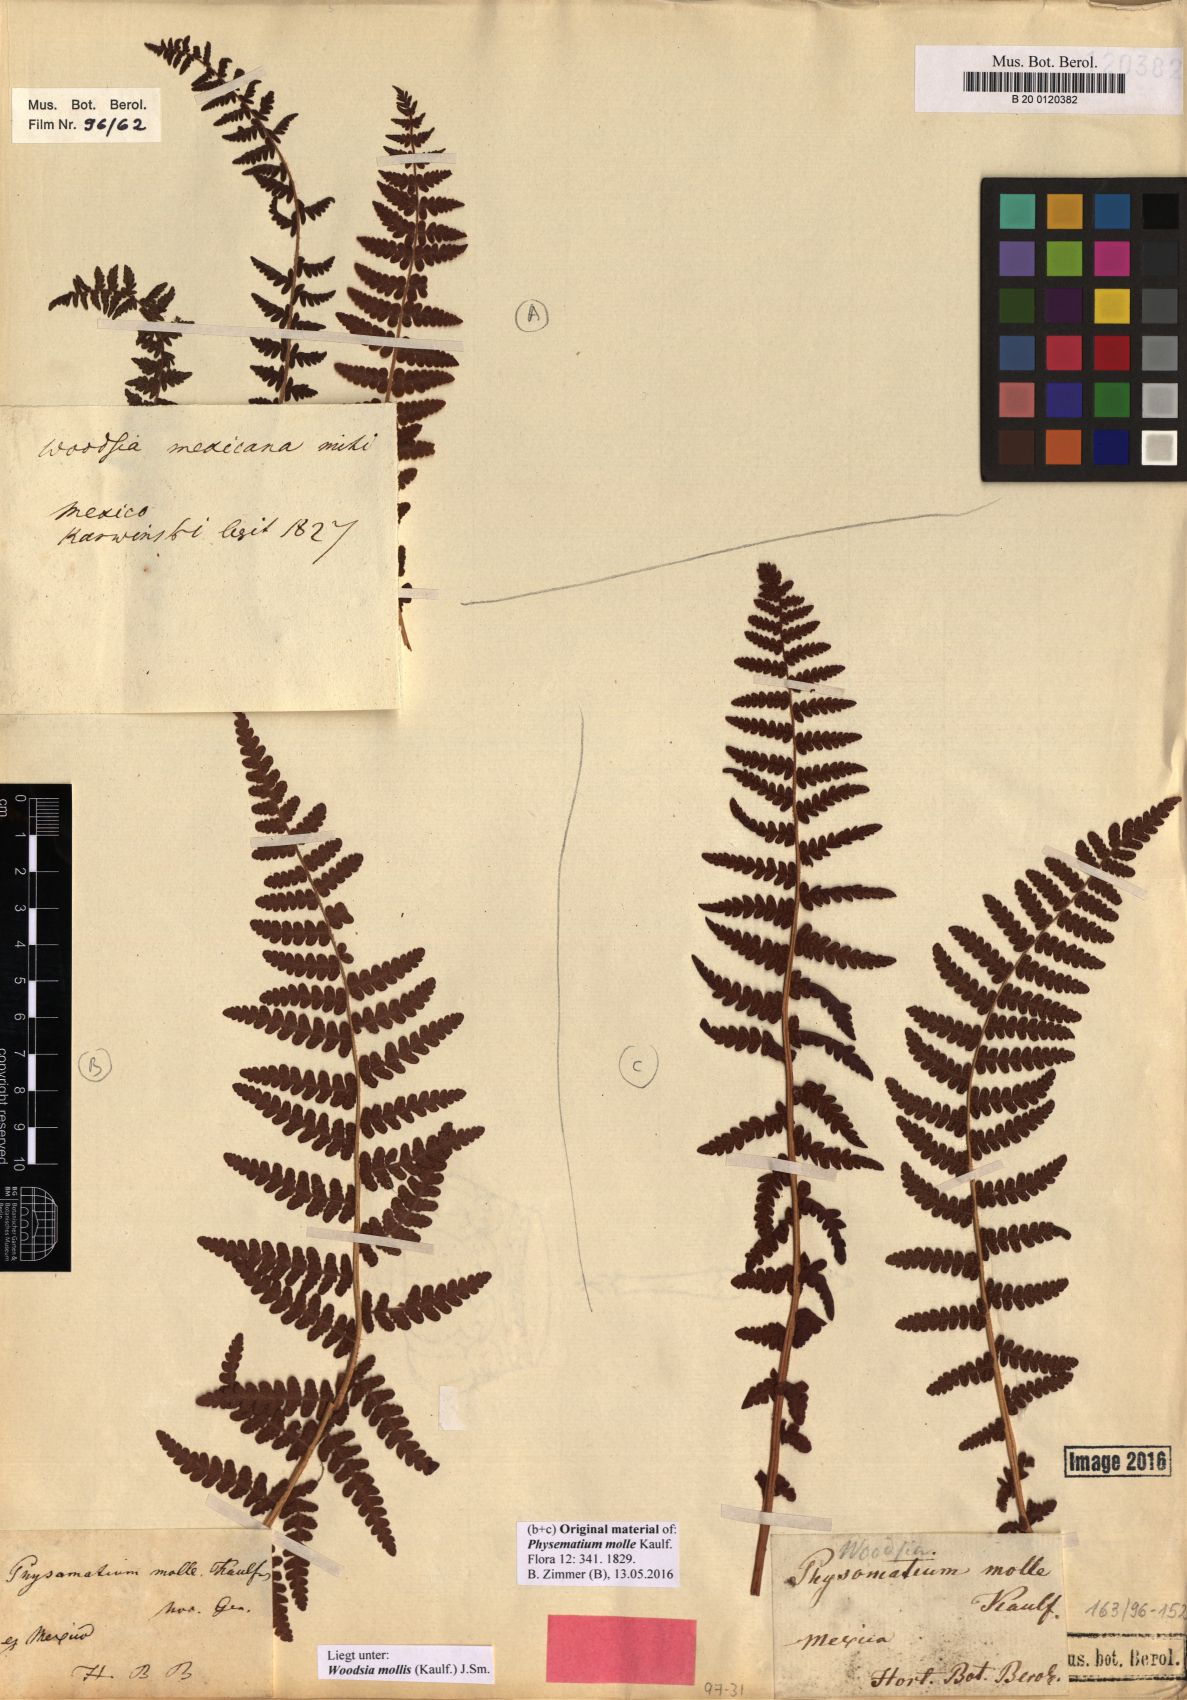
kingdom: Plantae
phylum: Tracheophyta
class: Polypodiopsida
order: Polypodiales
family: Woodsiaceae
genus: Physematium
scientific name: Physematium molle
